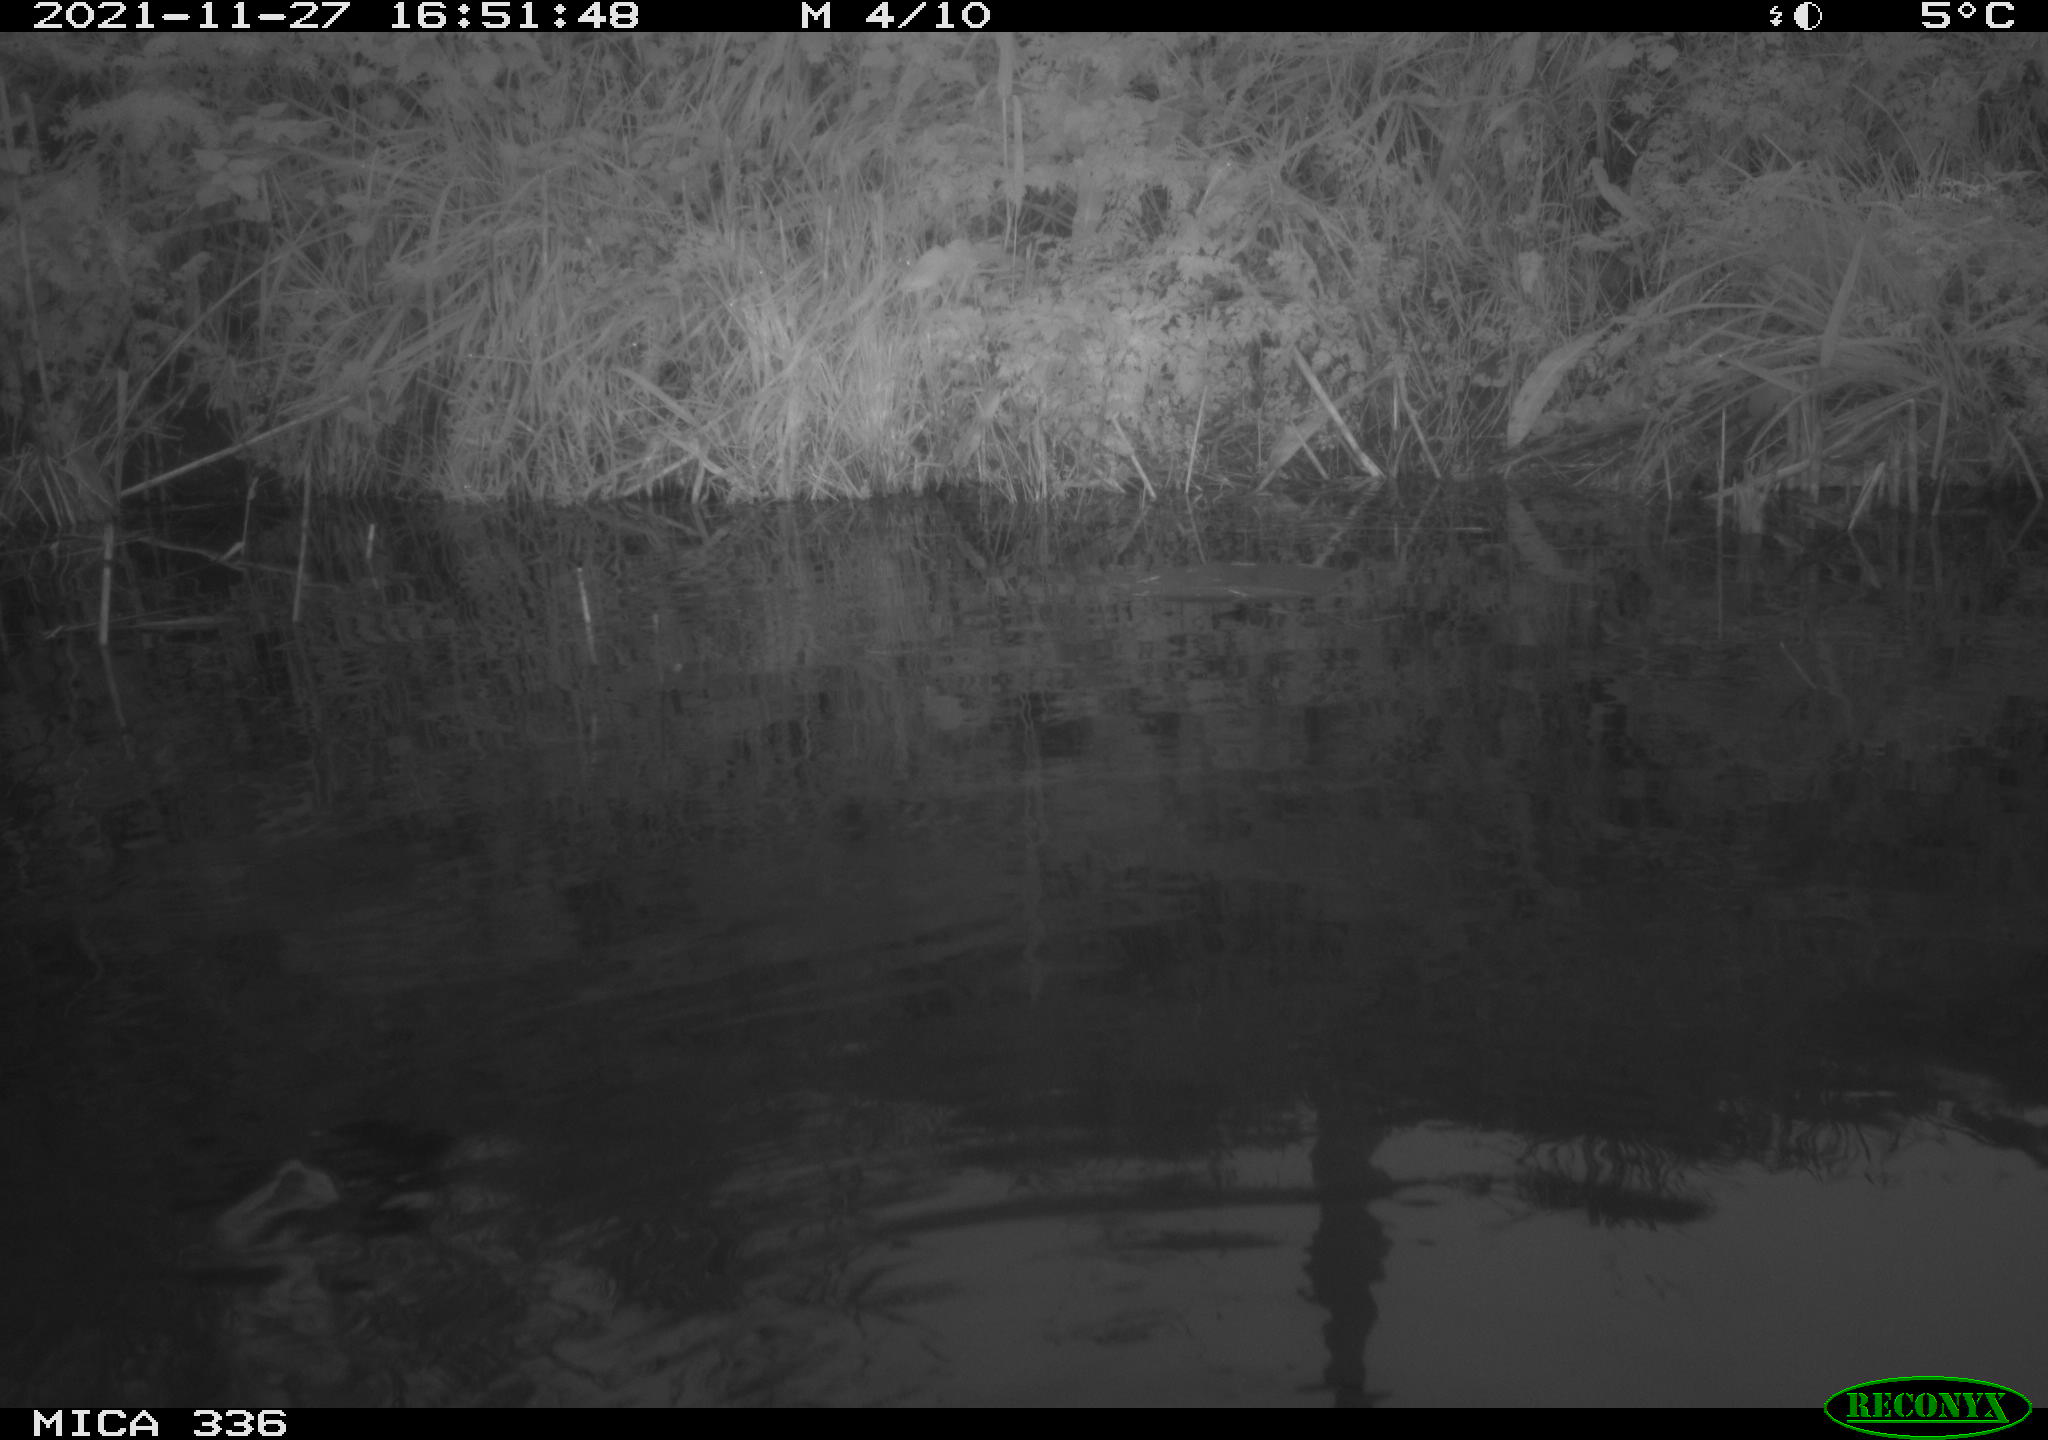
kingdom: Animalia
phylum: Chordata
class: Aves
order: Gruiformes
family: Rallidae
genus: Gallinula
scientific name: Gallinula chloropus
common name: Common moorhen
